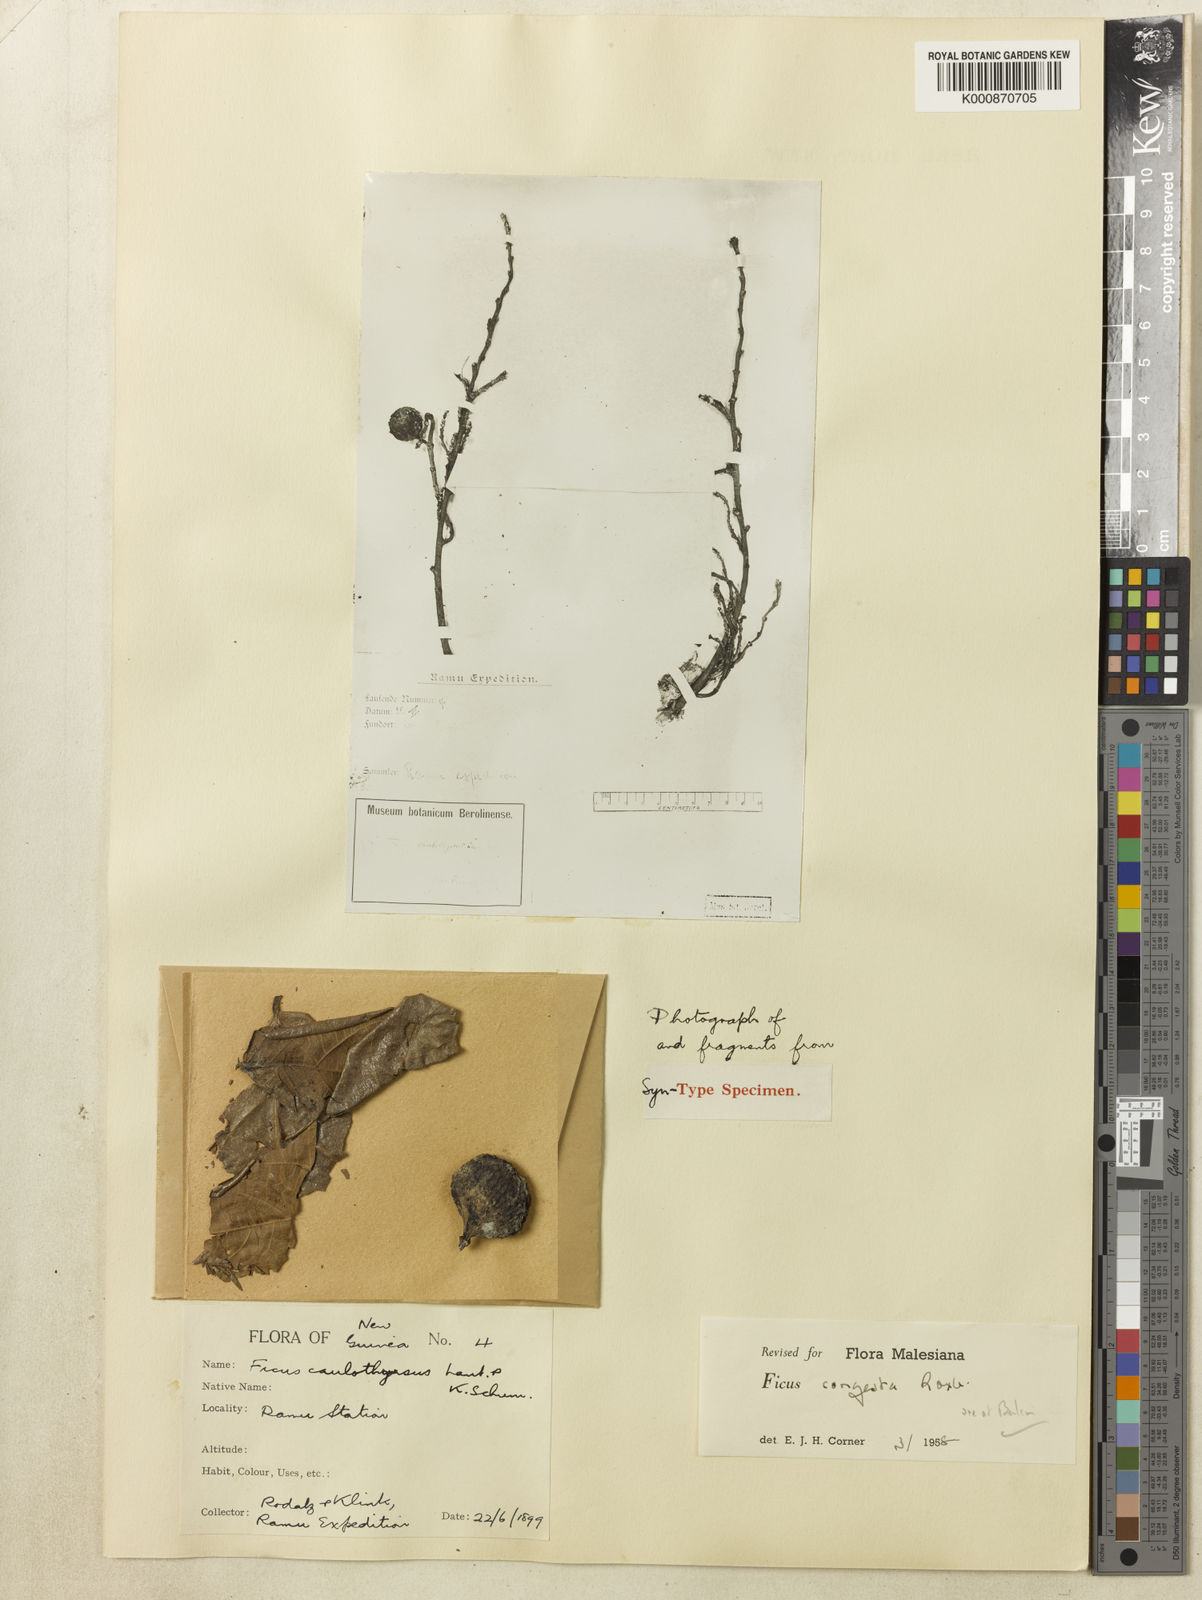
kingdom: Plantae
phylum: Tracheophyta
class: Magnoliopsida
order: Rosales
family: Moraceae
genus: Ficus
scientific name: Ficus congesta
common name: Cluster fig
